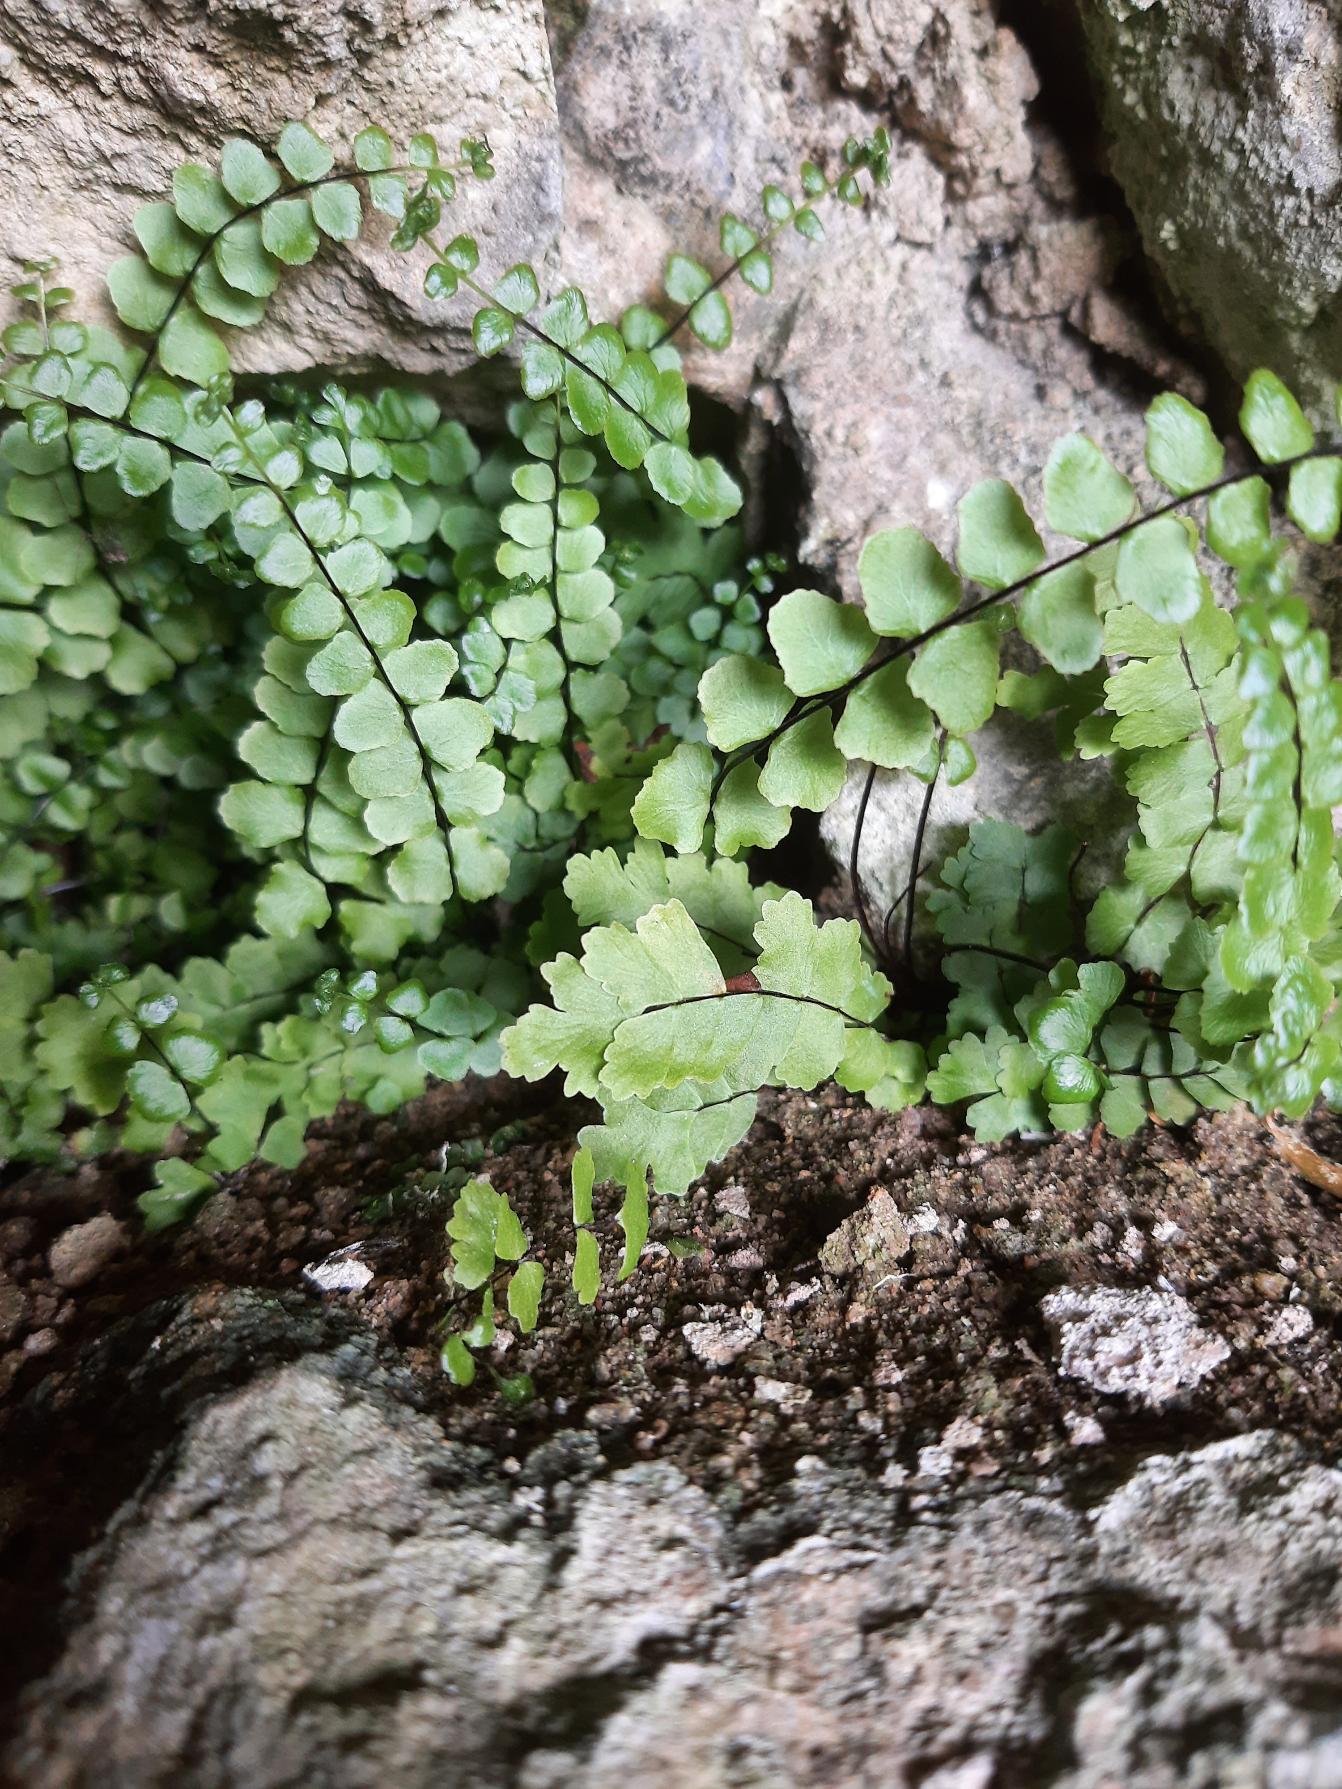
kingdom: Plantae
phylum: Tracheophyta
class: Polypodiopsida
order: Polypodiales
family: Aspleniaceae
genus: Asplenium
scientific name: Asplenium trichomanes
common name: Rundfinnet radeløv
